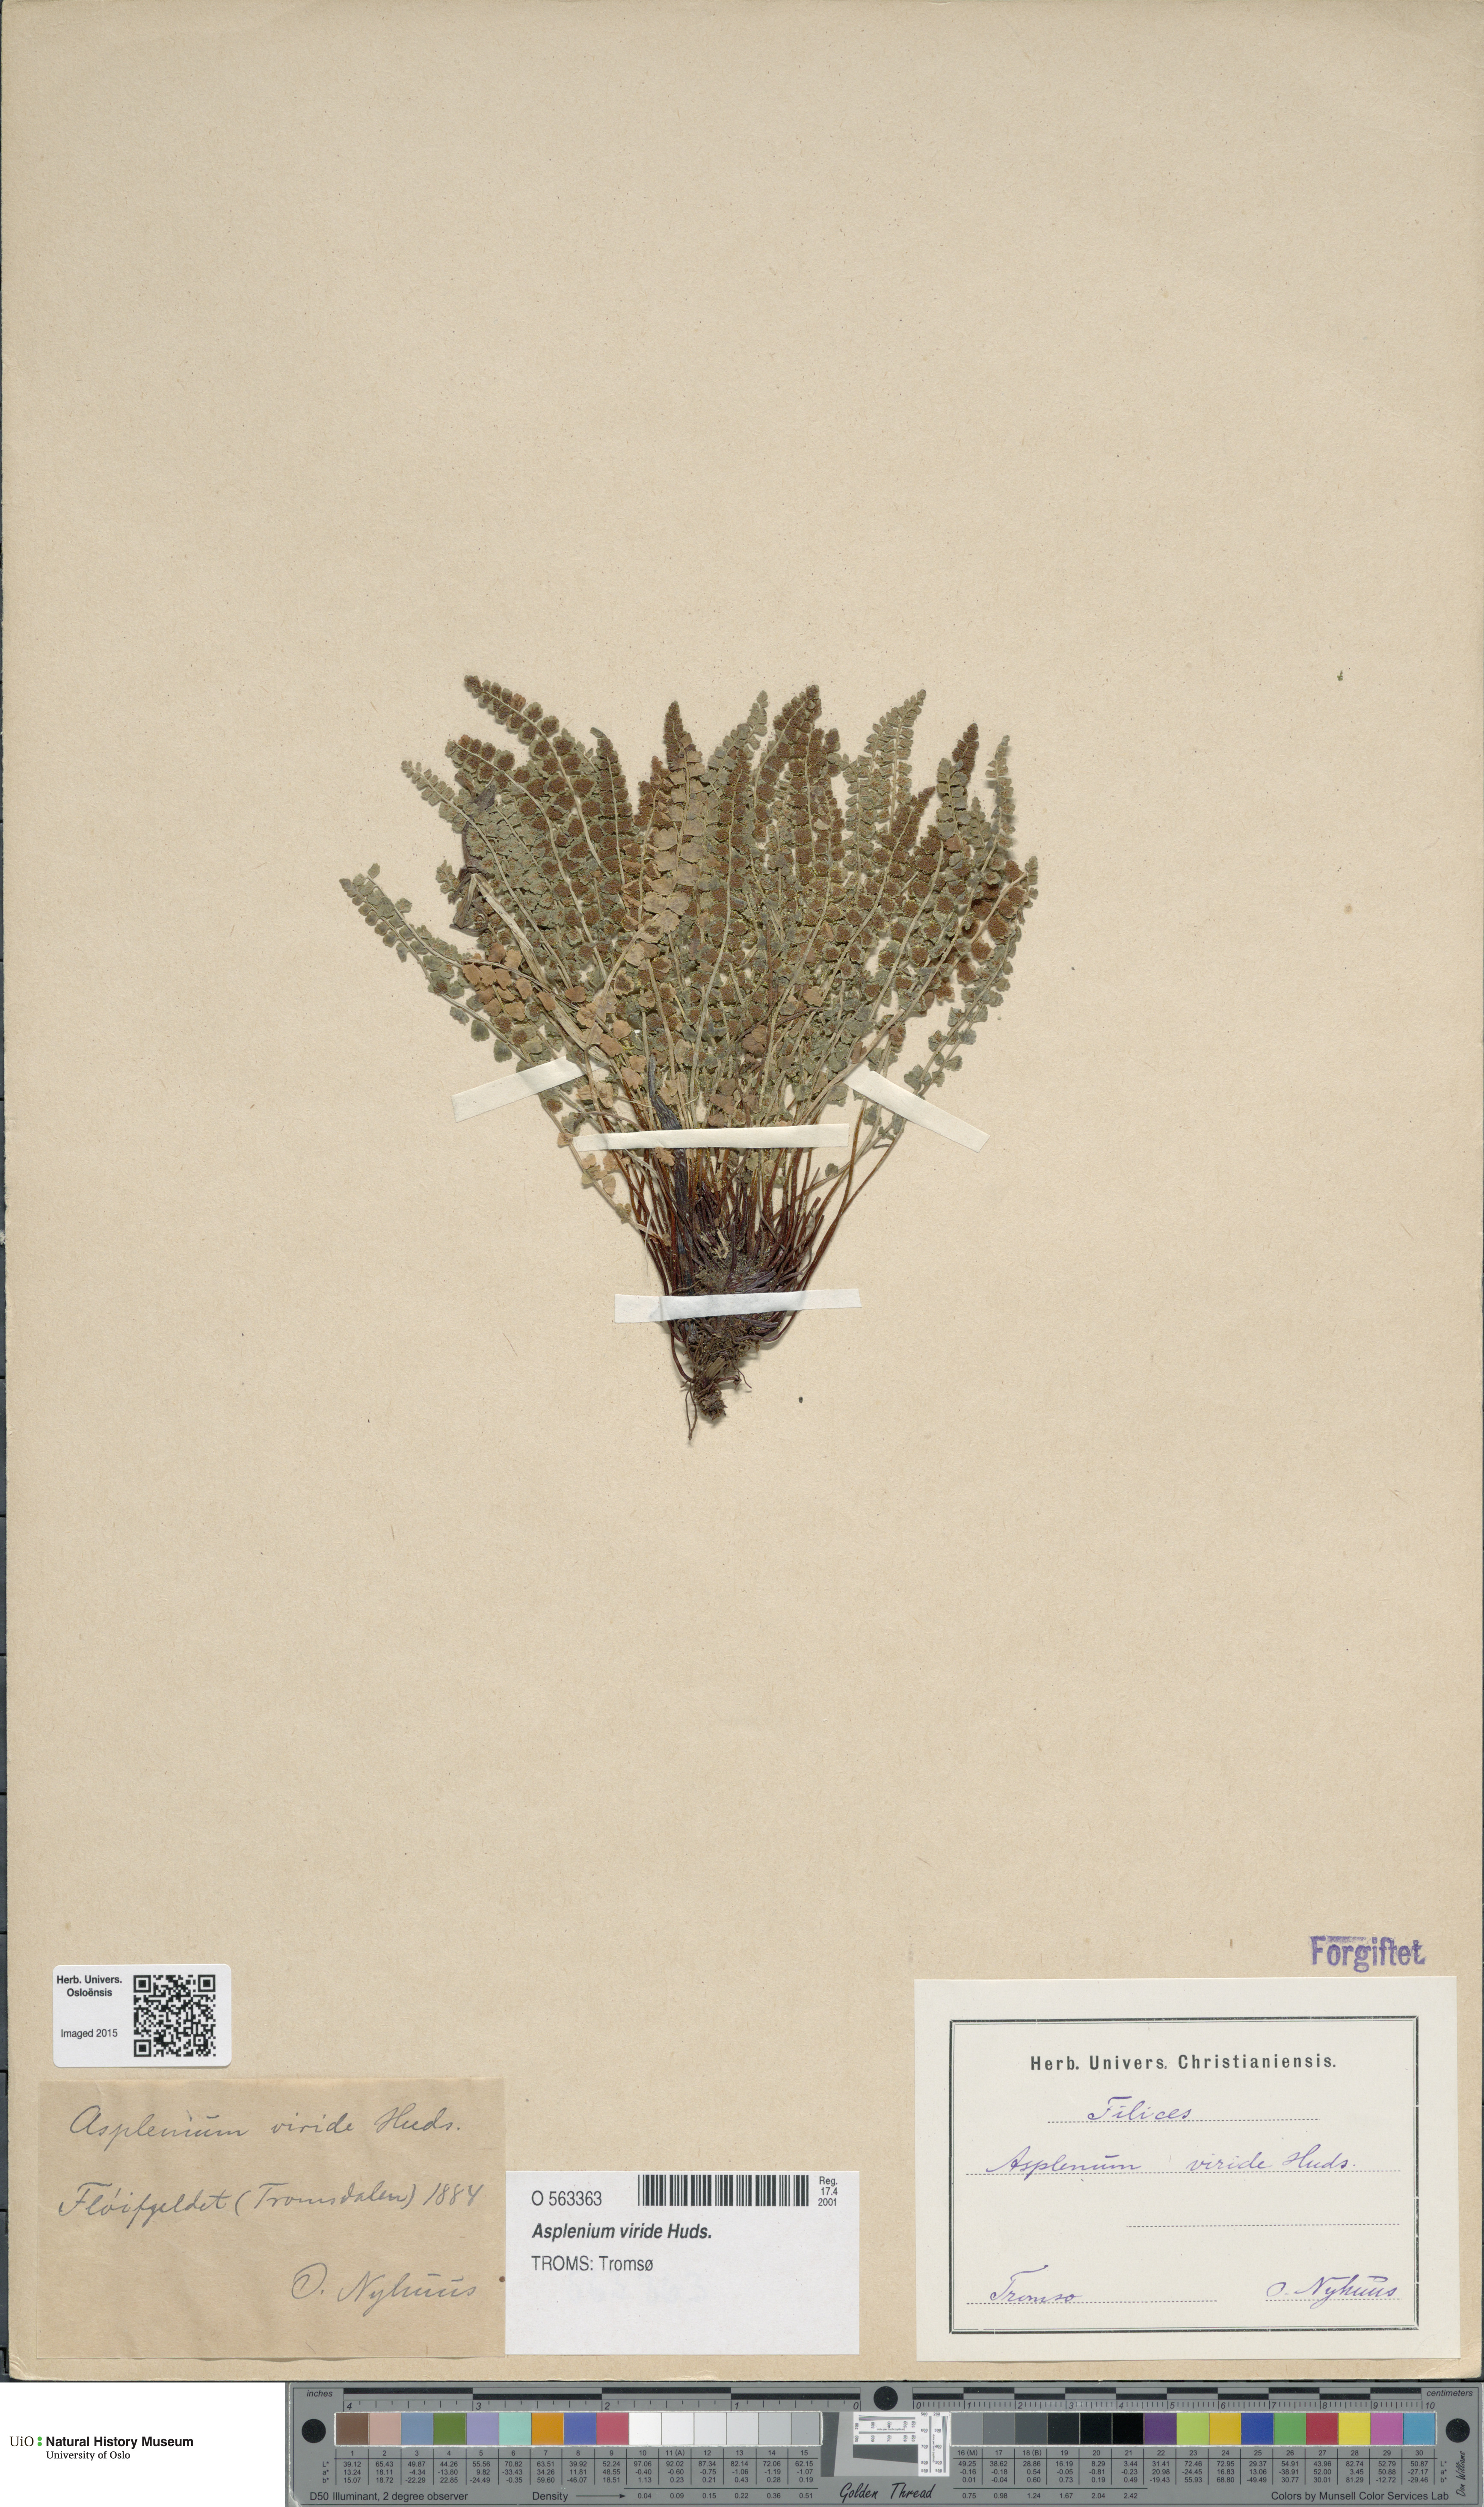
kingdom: Plantae
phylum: Tracheophyta
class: Polypodiopsida
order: Polypodiales
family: Aspleniaceae
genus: Asplenium
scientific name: Asplenium viride
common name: Green spleenwort
